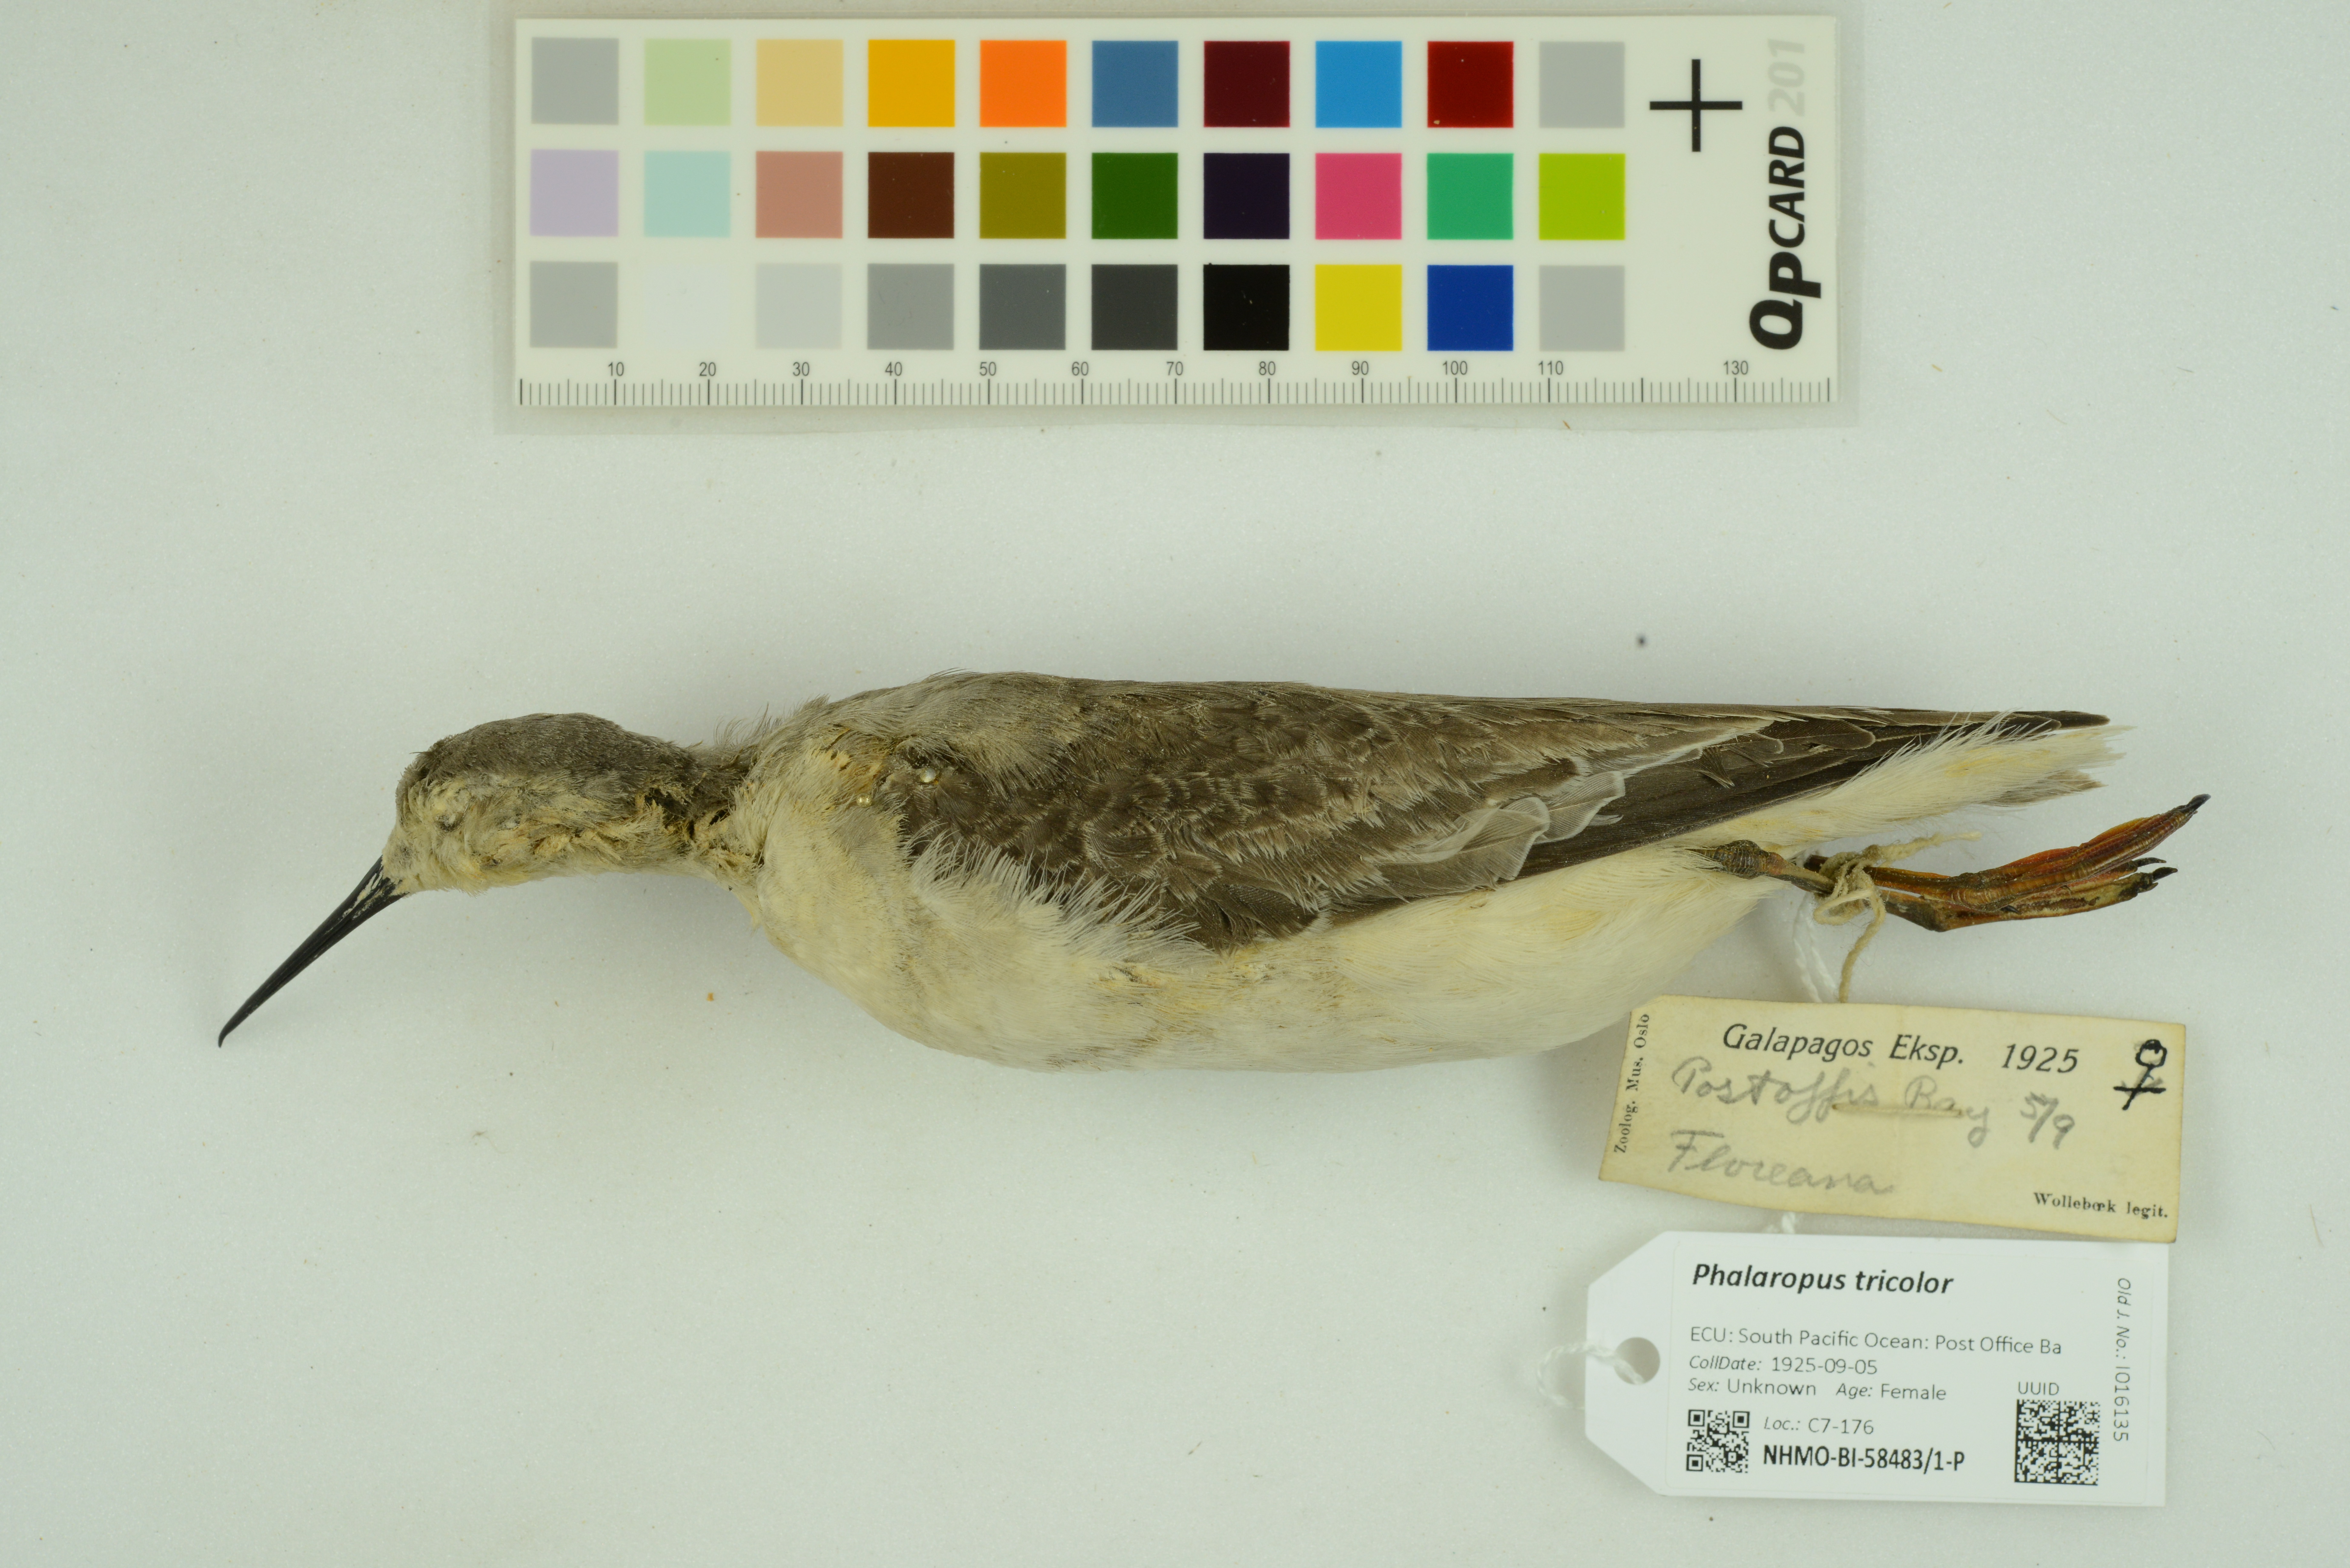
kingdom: Animalia
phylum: Chordata
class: Aves
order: Charadriiformes
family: Scolopacidae
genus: Phalaropus
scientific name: Phalaropus tricolor
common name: Wilson's phalarope
